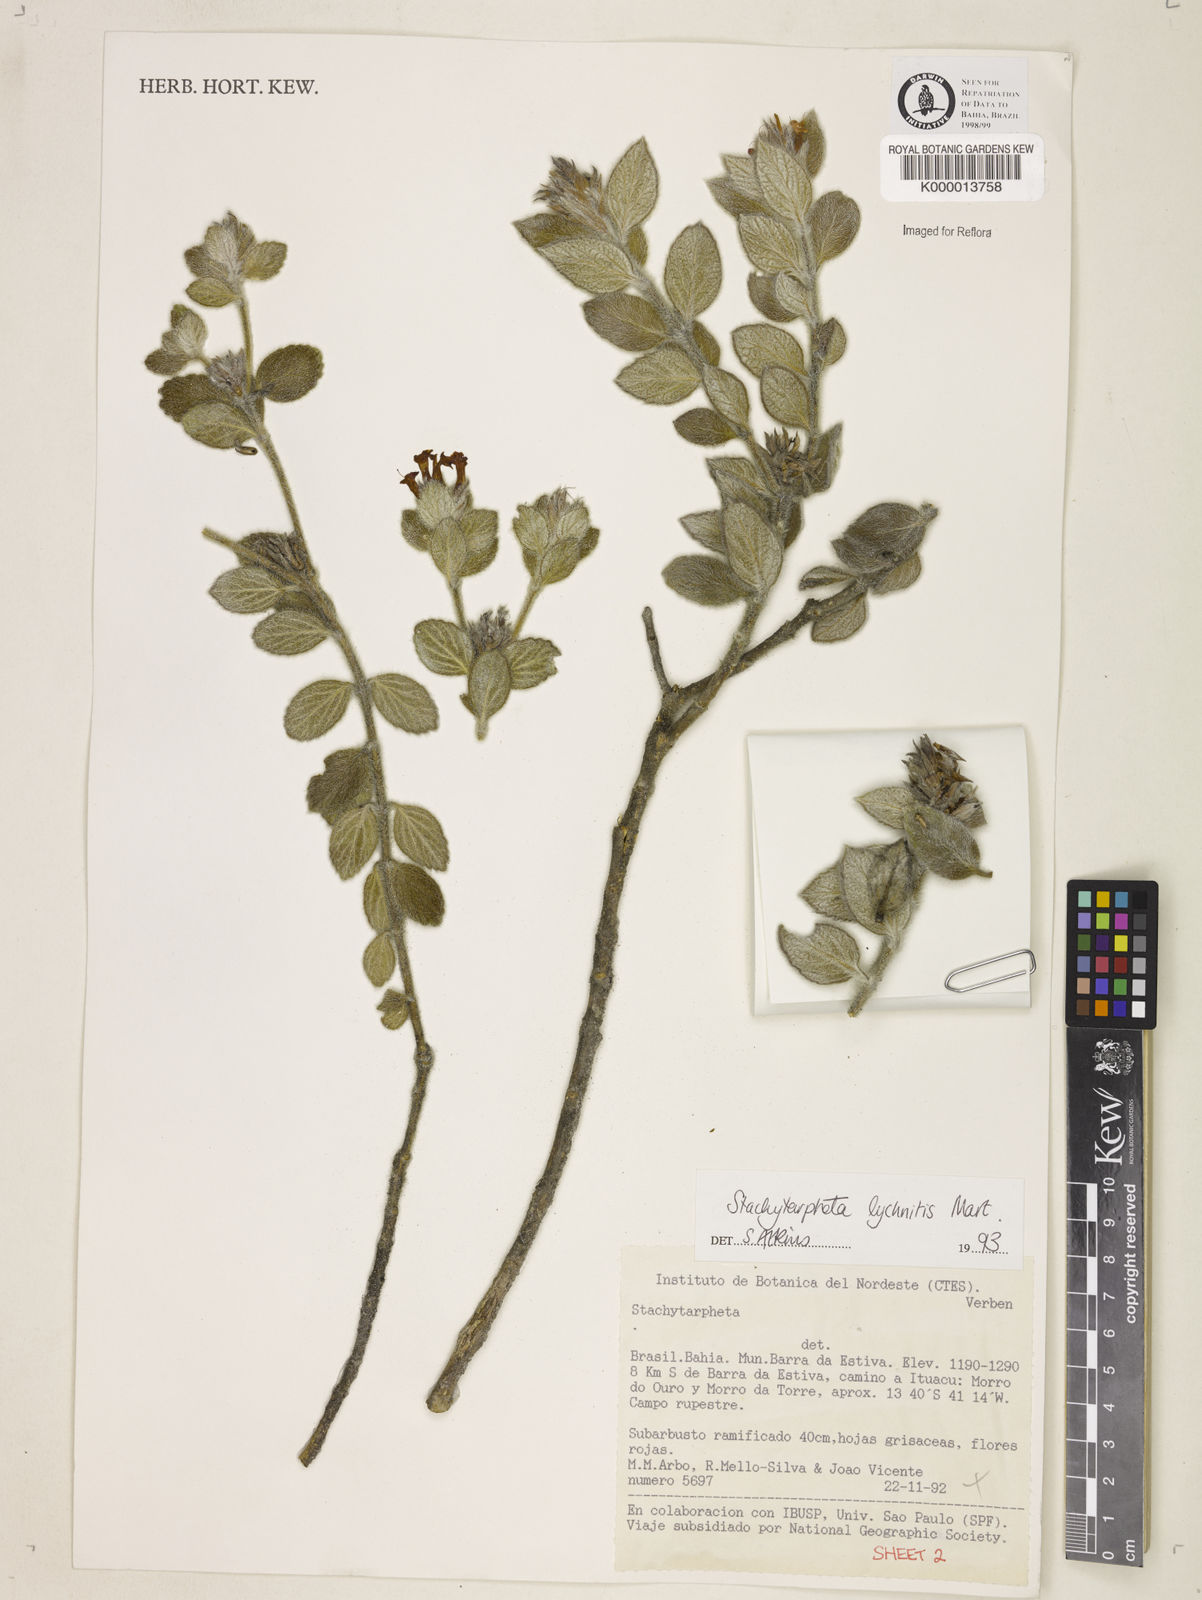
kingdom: Plantae
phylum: Tracheophyta
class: Magnoliopsida
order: Lamiales
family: Verbenaceae
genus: Stachytarpheta
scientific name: Stachytarpheta
